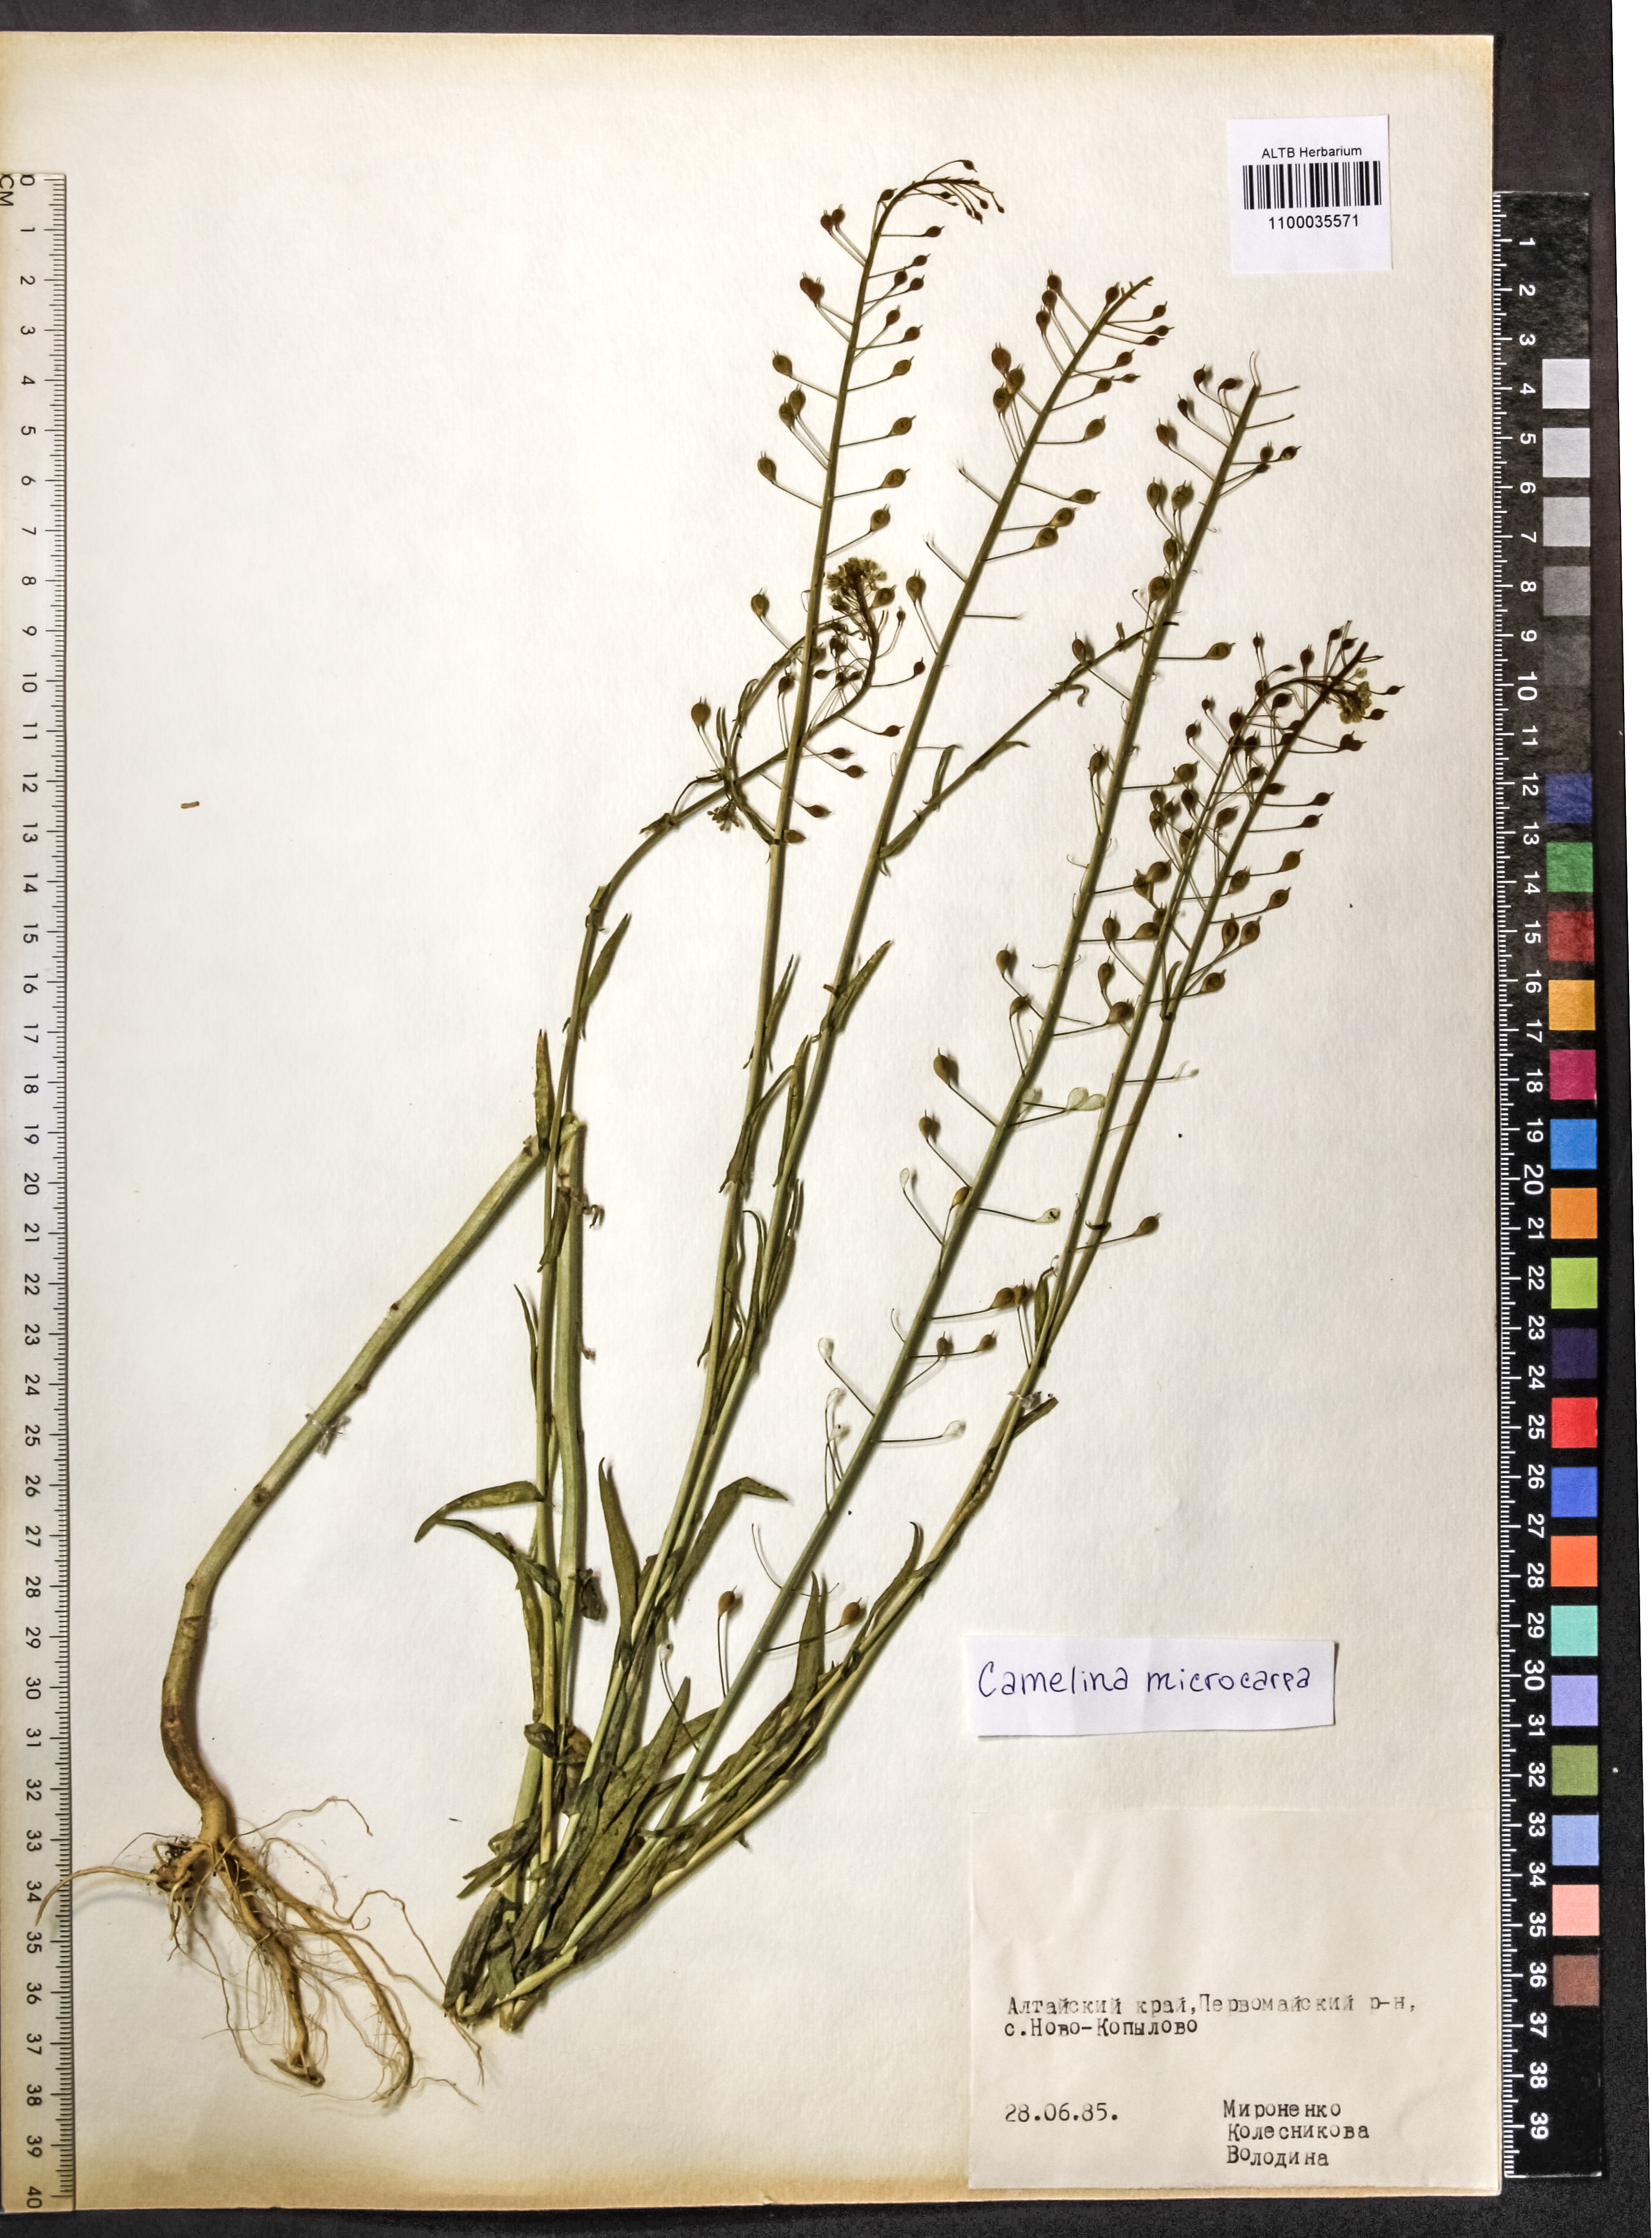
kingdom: Plantae
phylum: Tracheophyta
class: Magnoliopsida
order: Brassicales
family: Brassicaceae
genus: Camelina
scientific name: Camelina microcarpa
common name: Lesser gold-of-pleasure
